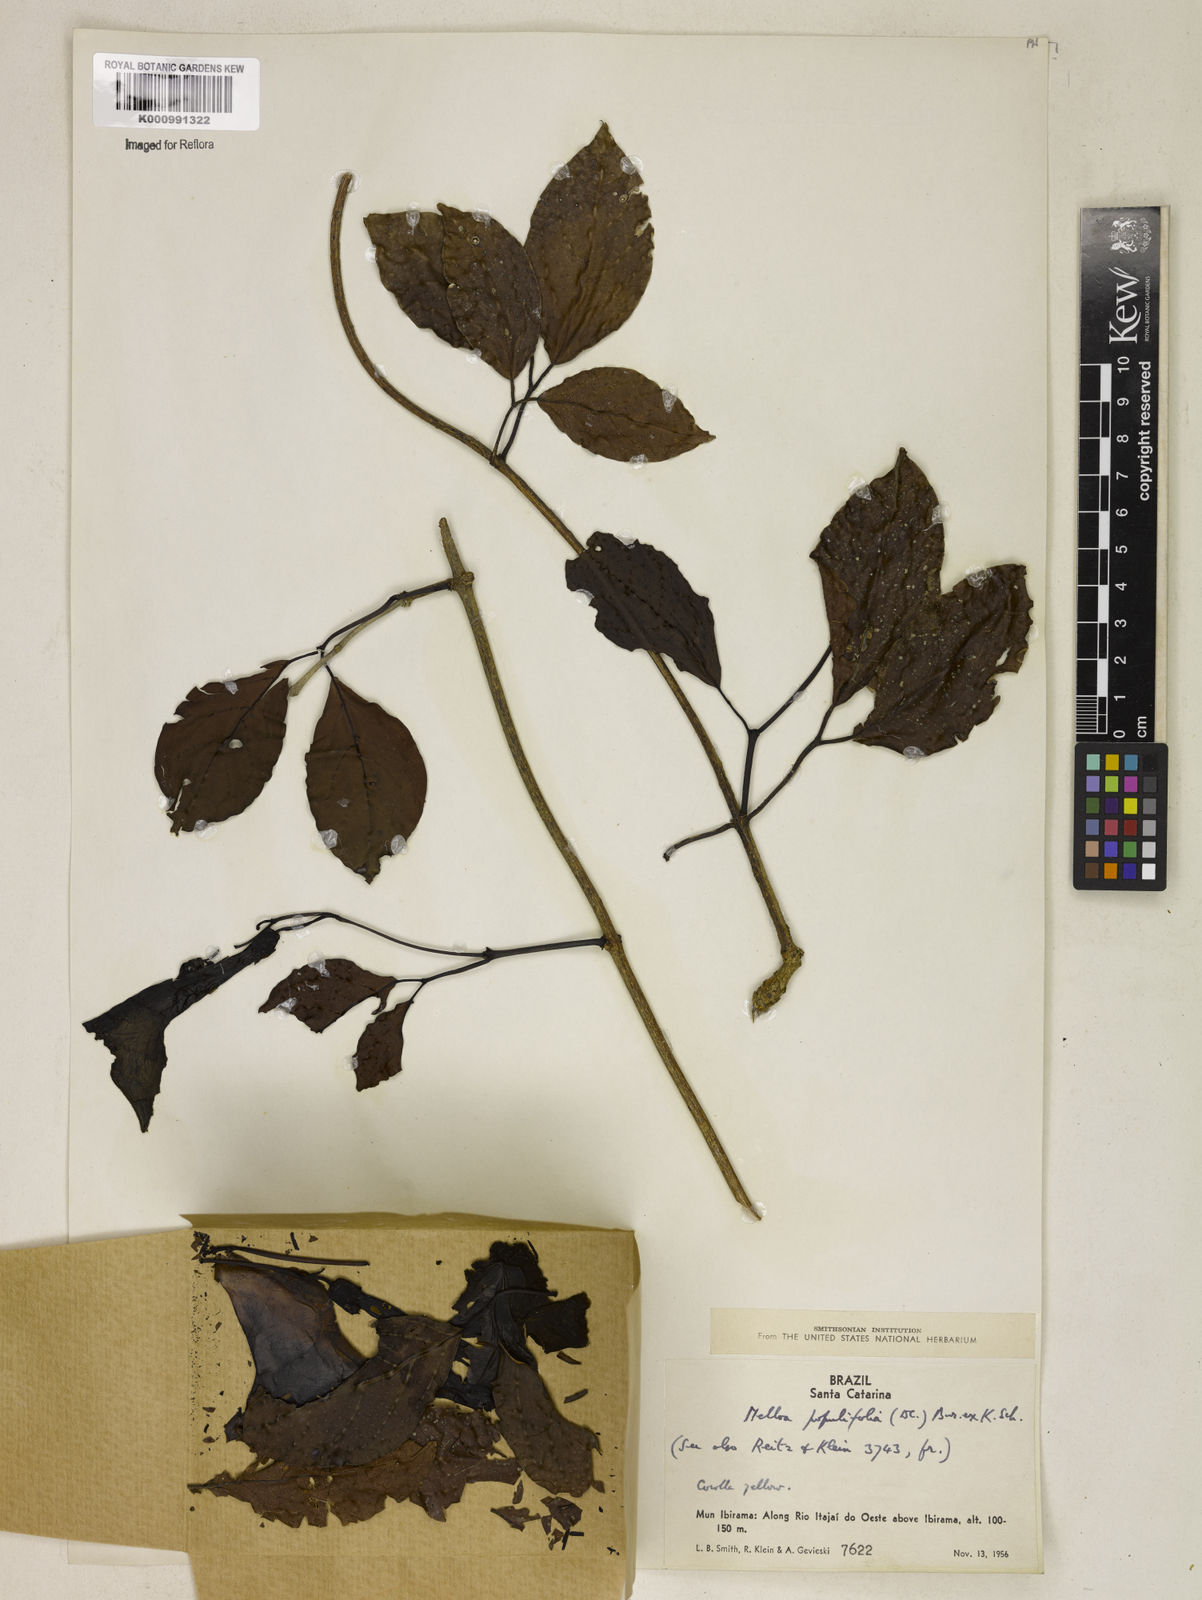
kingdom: Plantae
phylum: Tracheophyta
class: Magnoliopsida
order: Lamiales
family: Bignoniaceae
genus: Dolichandra
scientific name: Dolichandra quadrivalvis
